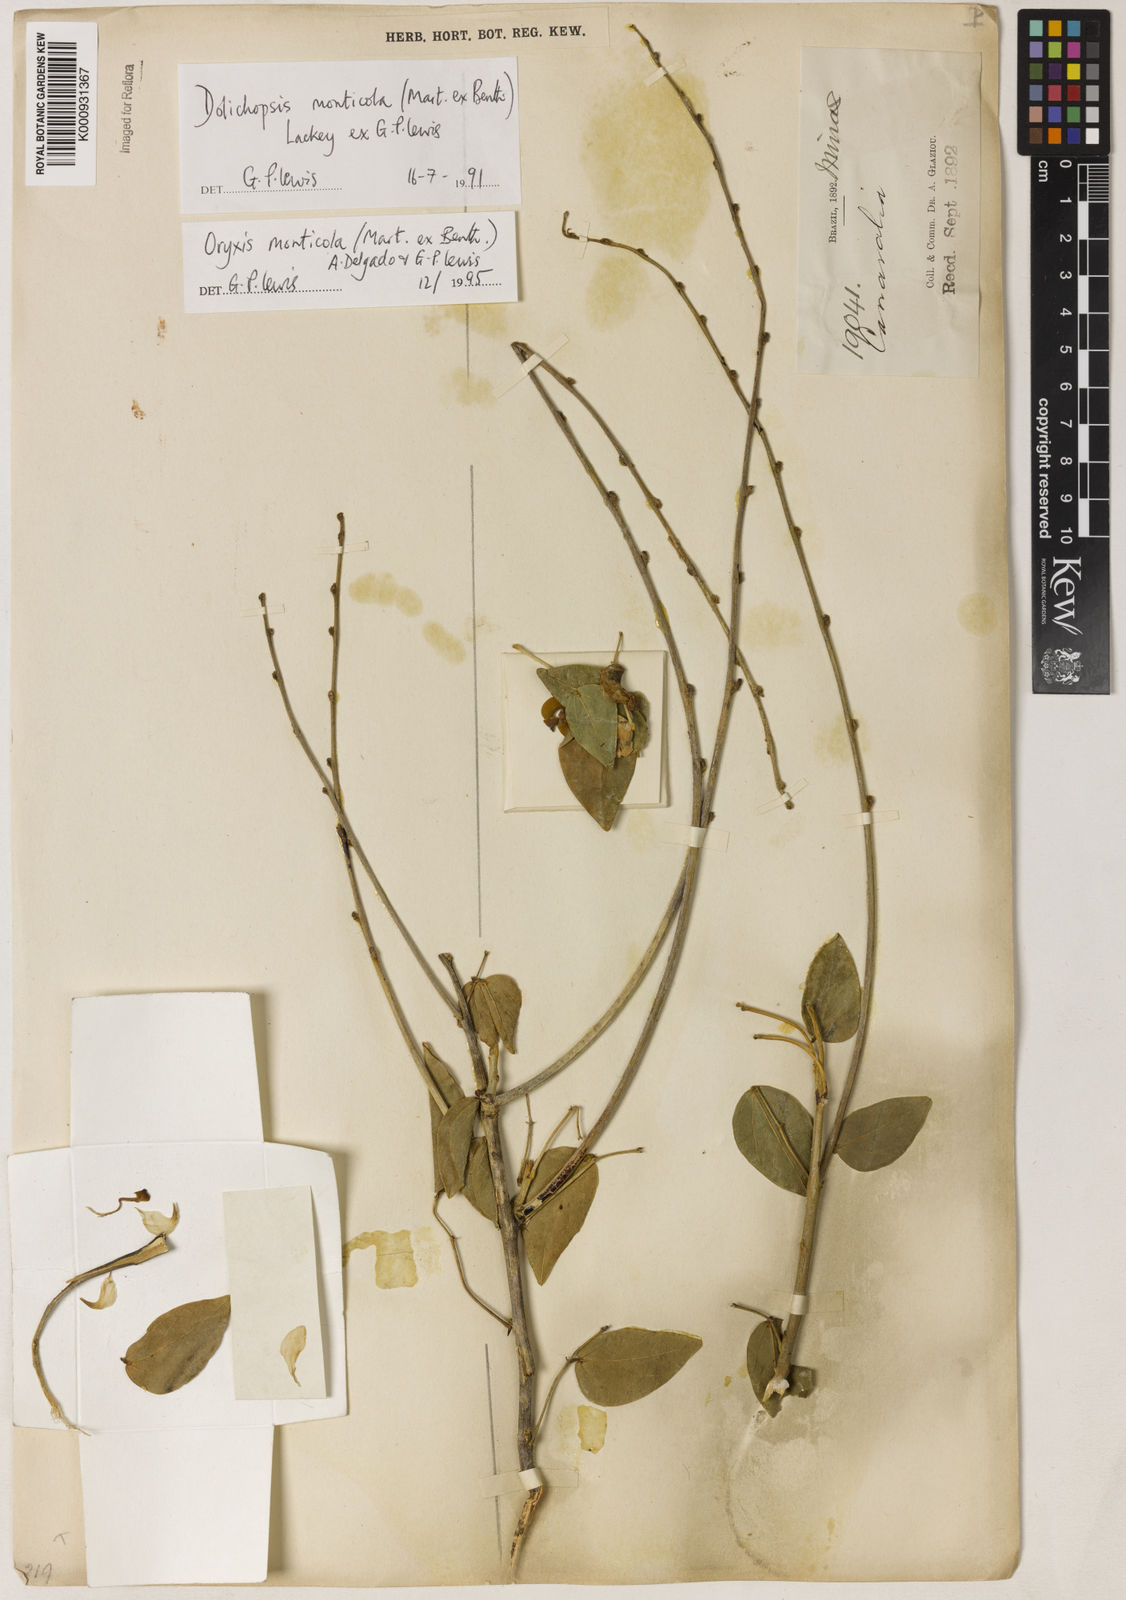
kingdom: Plantae
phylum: Tracheophyta
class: Magnoliopsida
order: Fabales
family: Fabaceae
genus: Dolichopsis
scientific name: Dolichopsis monticola
